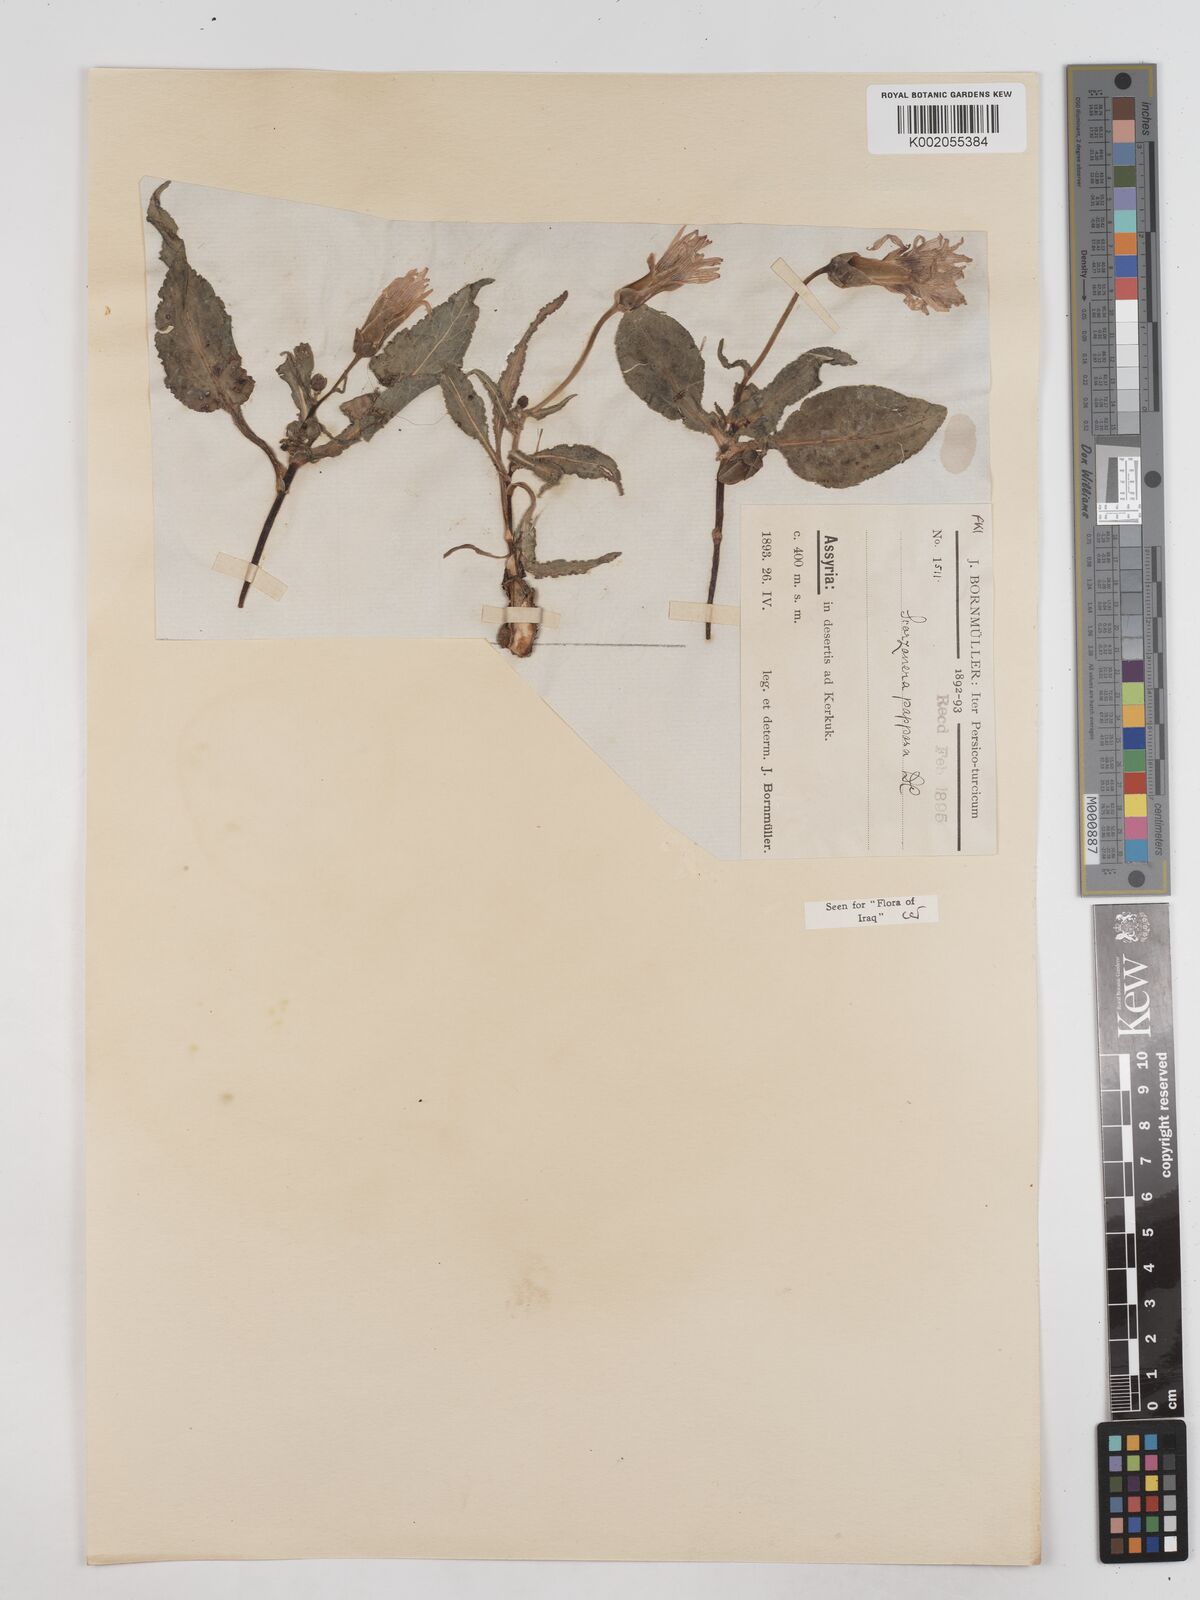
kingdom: Plantae
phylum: Tracheophyta
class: Magnoliopsida
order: Asterales
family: Asteraceae
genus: Pseudopodospermum
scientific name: Pseudopodospermum papposum
